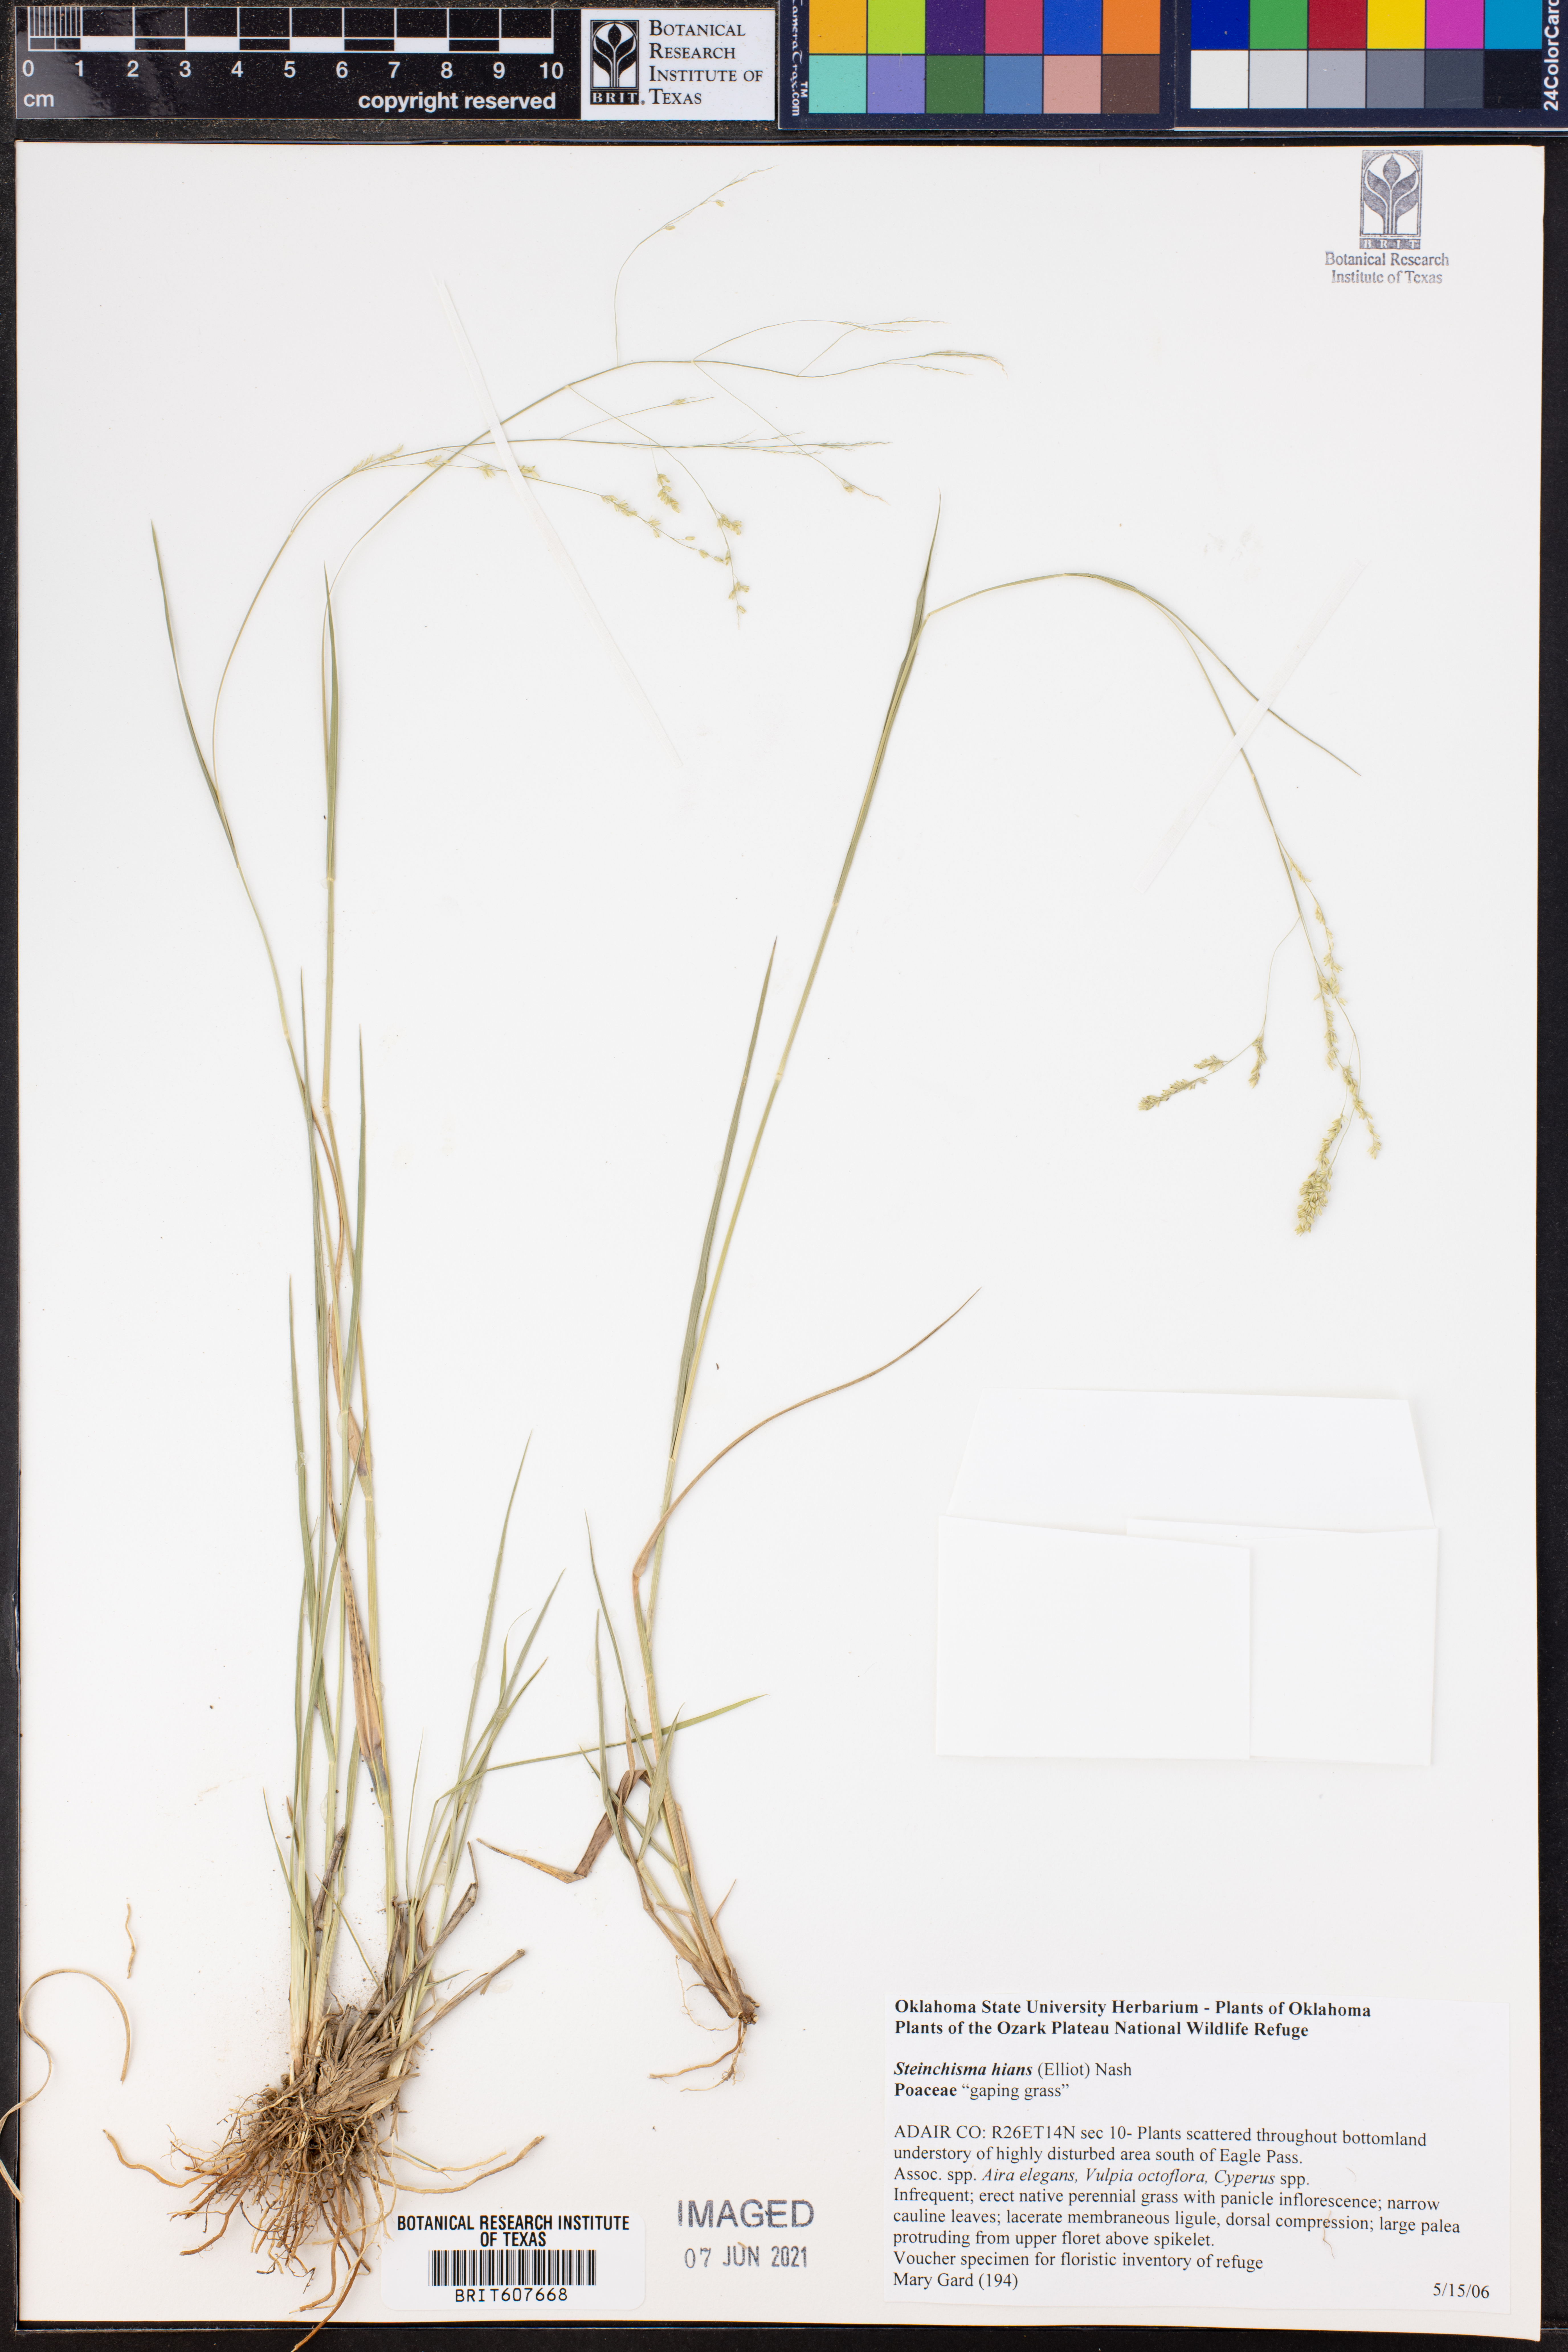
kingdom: Plantae
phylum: Tracheophyta
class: Liliopsida
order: Poales
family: Poaceae
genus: Steinchisma
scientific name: Steinchisma hians
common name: Gaping panic grass
